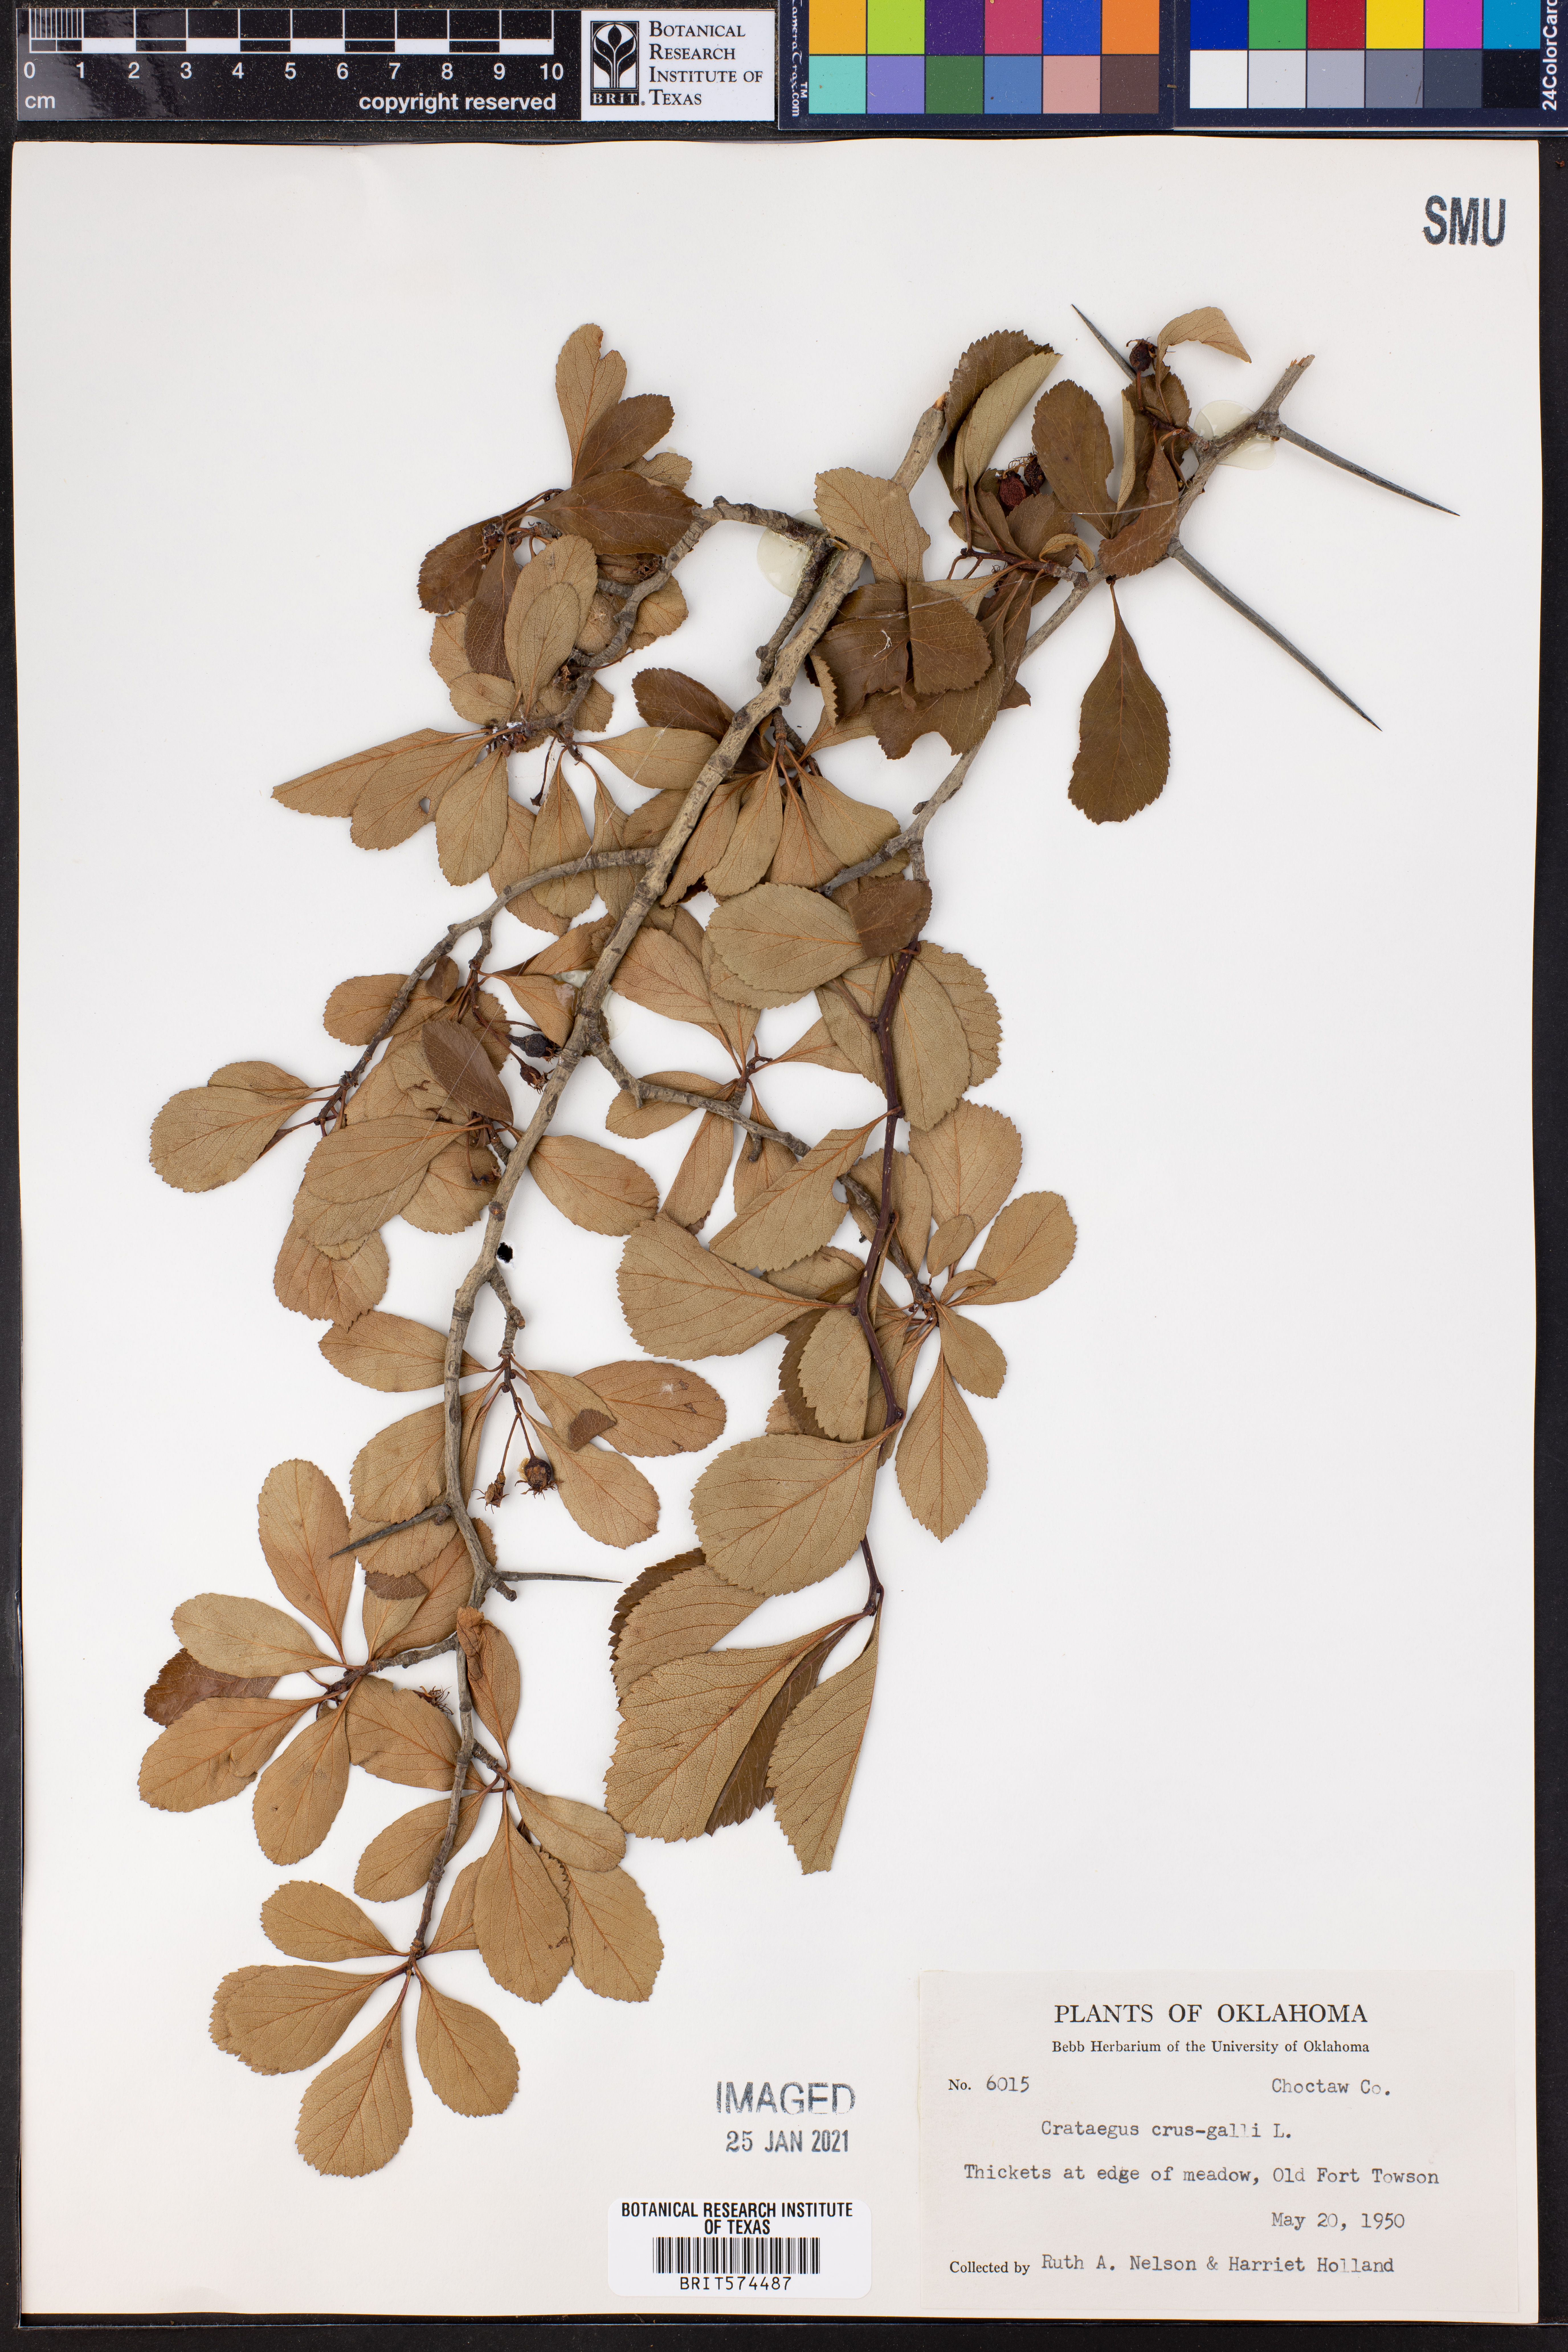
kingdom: Plantae
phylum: Tracheophyta
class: Magnoliopsida
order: Rosales
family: Rosaceae
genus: Crataegus
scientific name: Crataegus crus-galli
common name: Cockspurthorn
